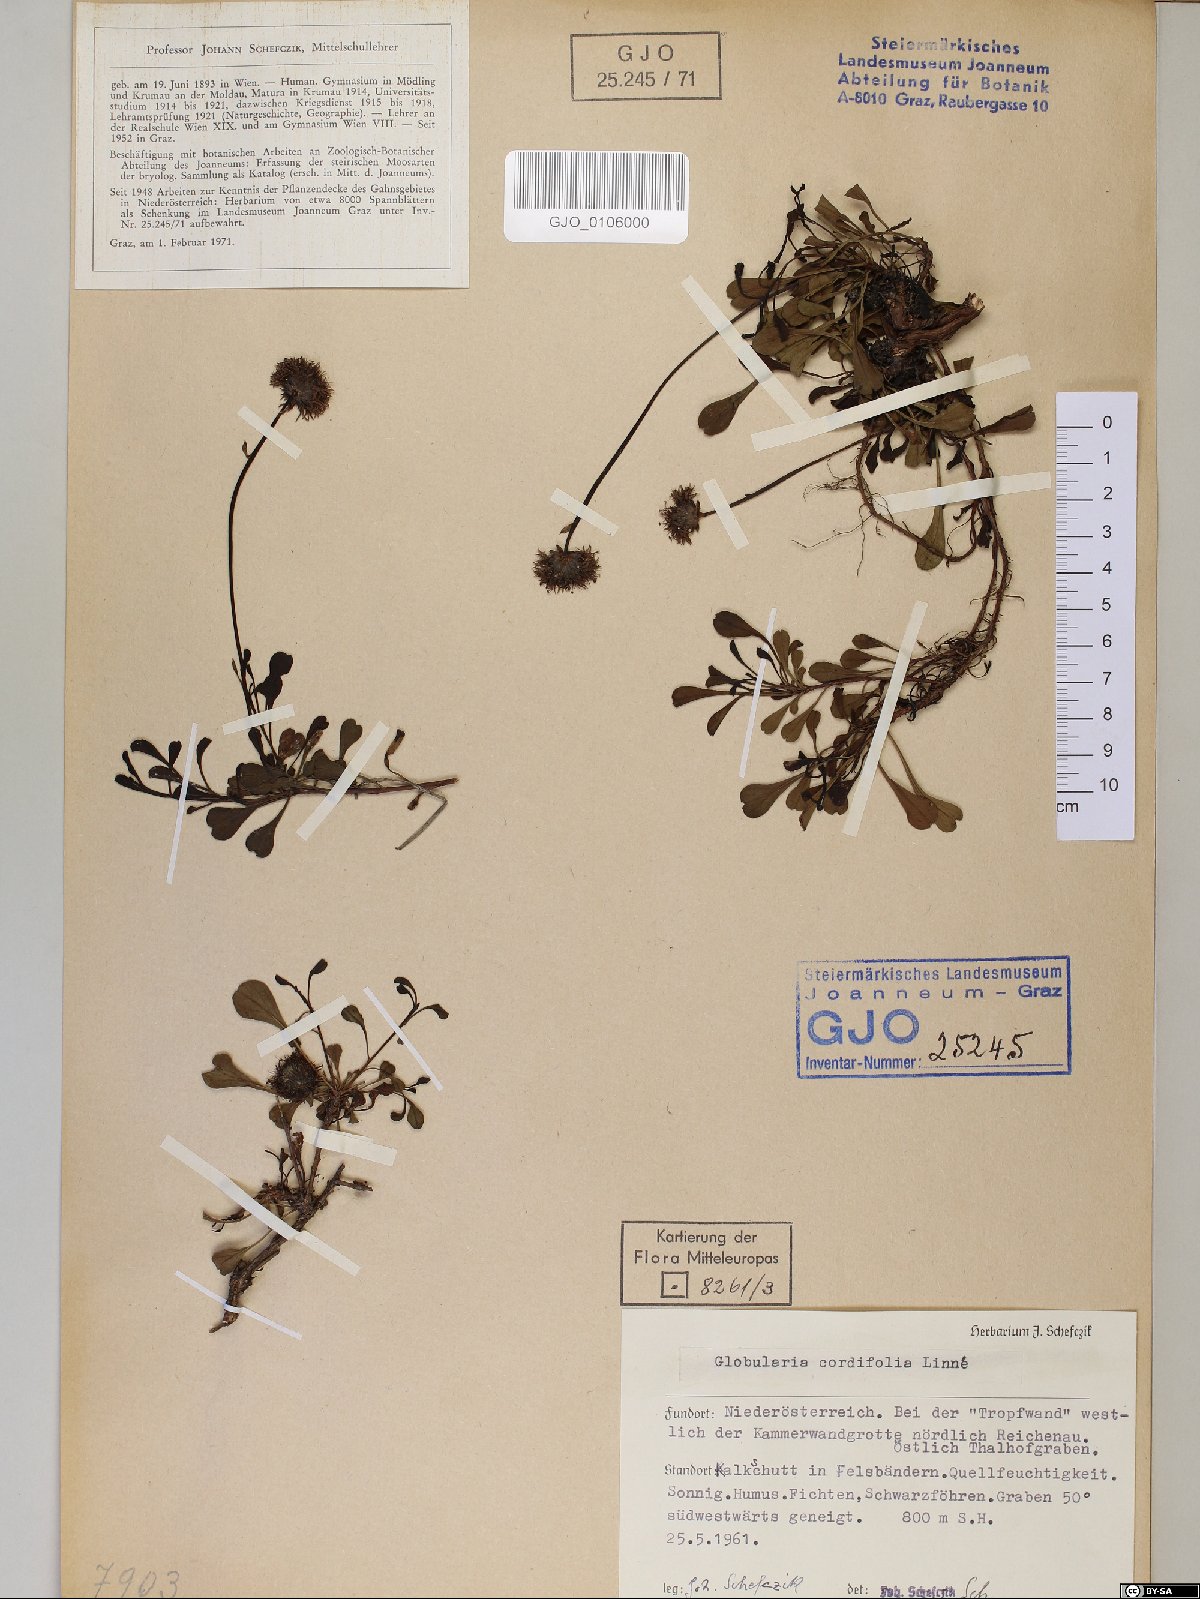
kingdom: Plantae
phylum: Tracheophyta
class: Magnoliopsida
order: Lamiales
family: Plantaginaceae
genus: Globularia
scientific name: Globularia cordifolia
